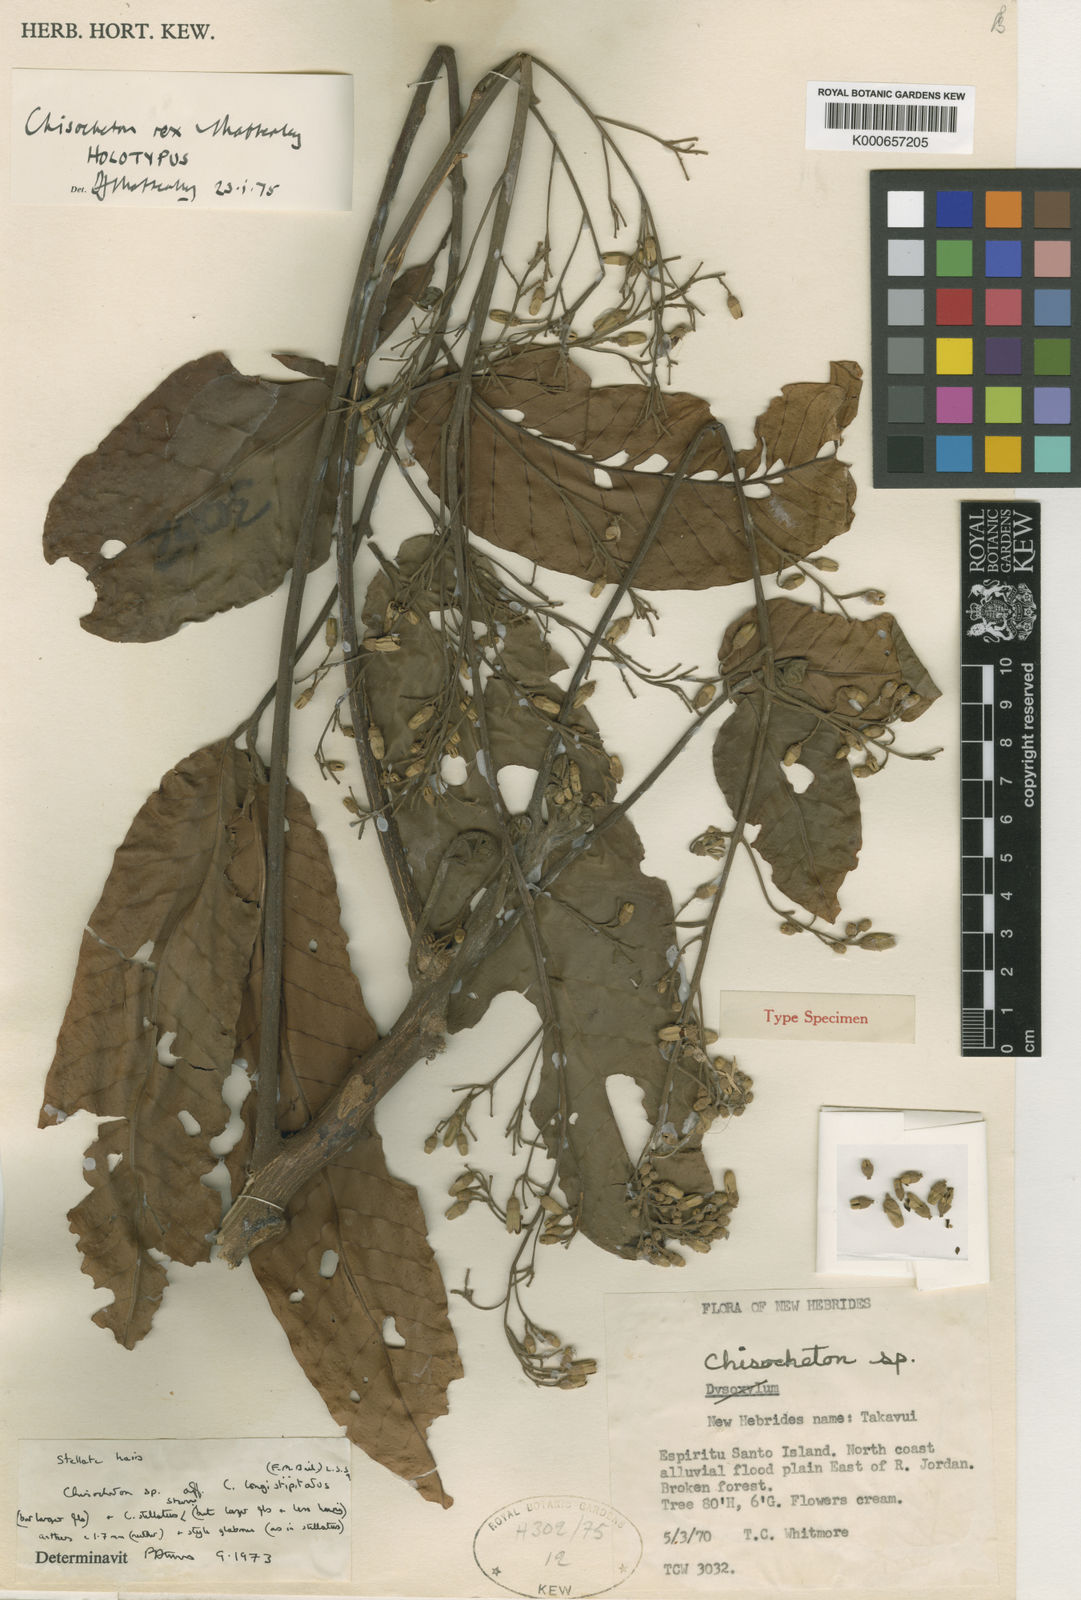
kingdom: Plantae
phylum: Tracheophyta
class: Magnoliopsida
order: Sapindales
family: Meliaceae
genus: Chisocheton
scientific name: Chisocheton rex
